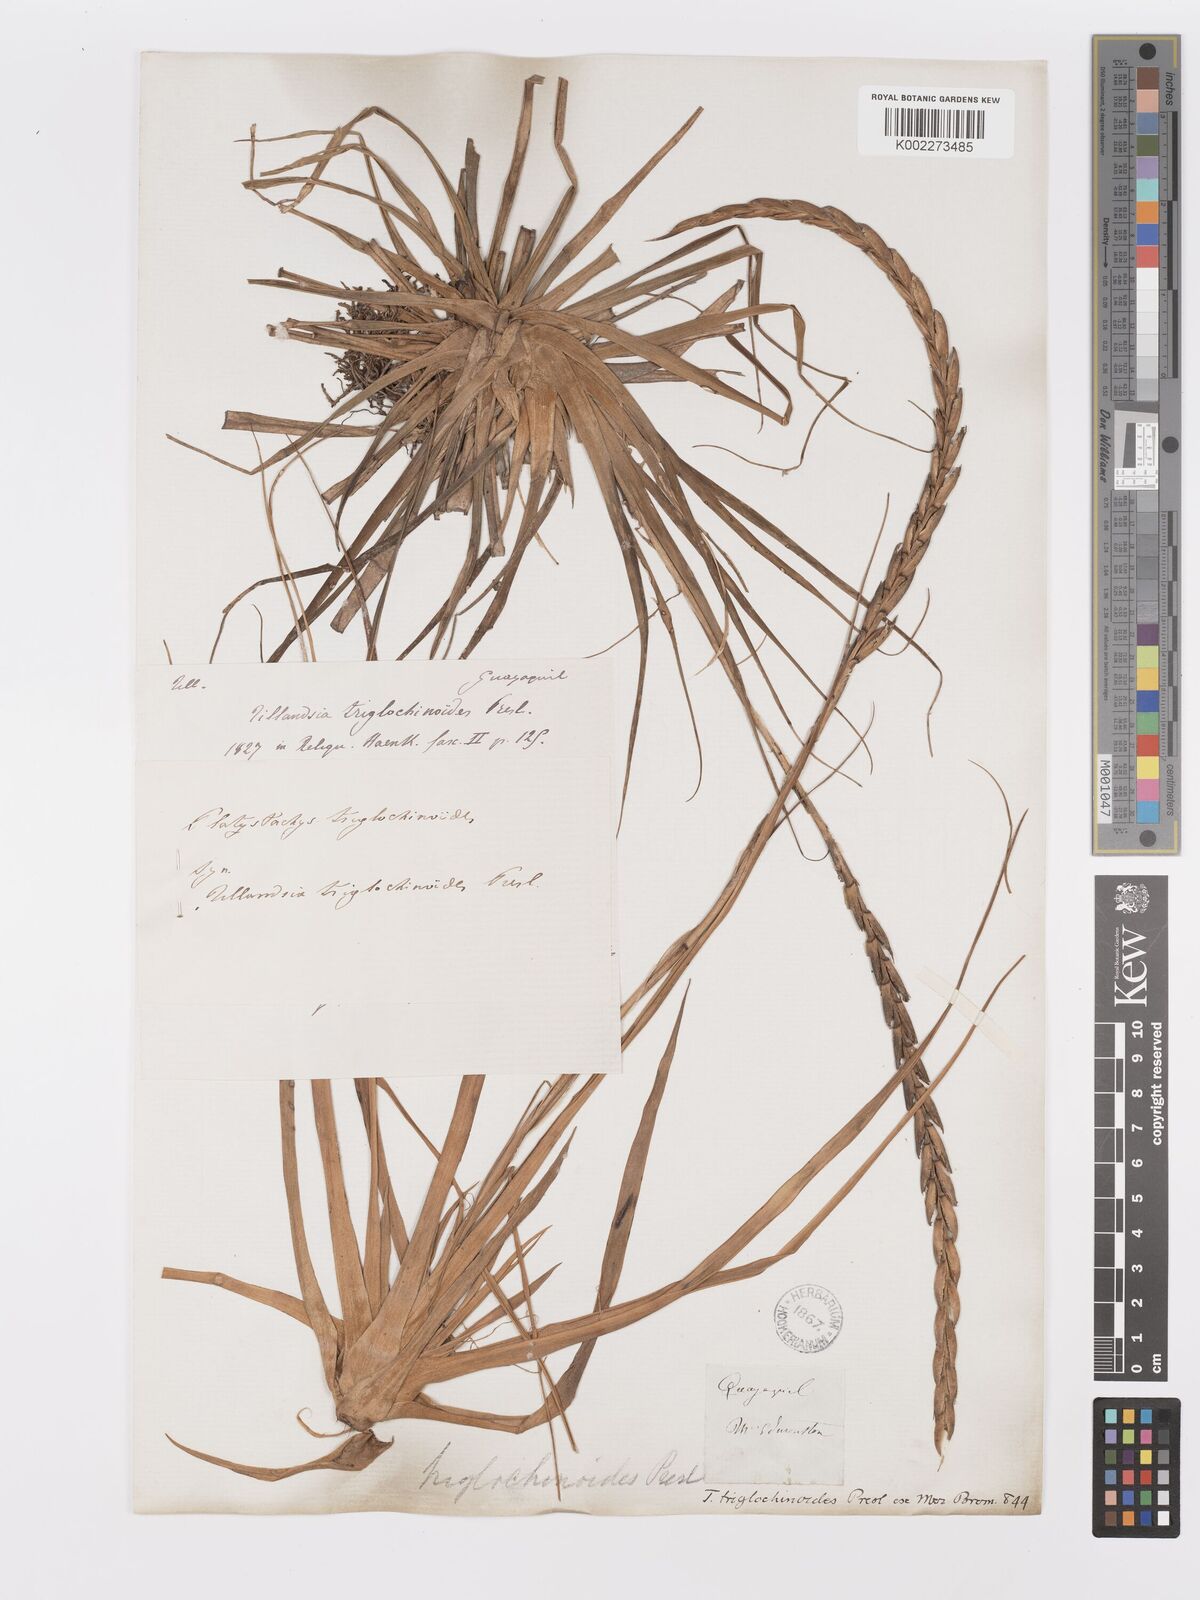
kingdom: Plantae
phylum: Tracheophyta
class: Liliopsida
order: Poales
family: Bromeliaceae
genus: Lemeltonia
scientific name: Lemeltonia triglochinoides
